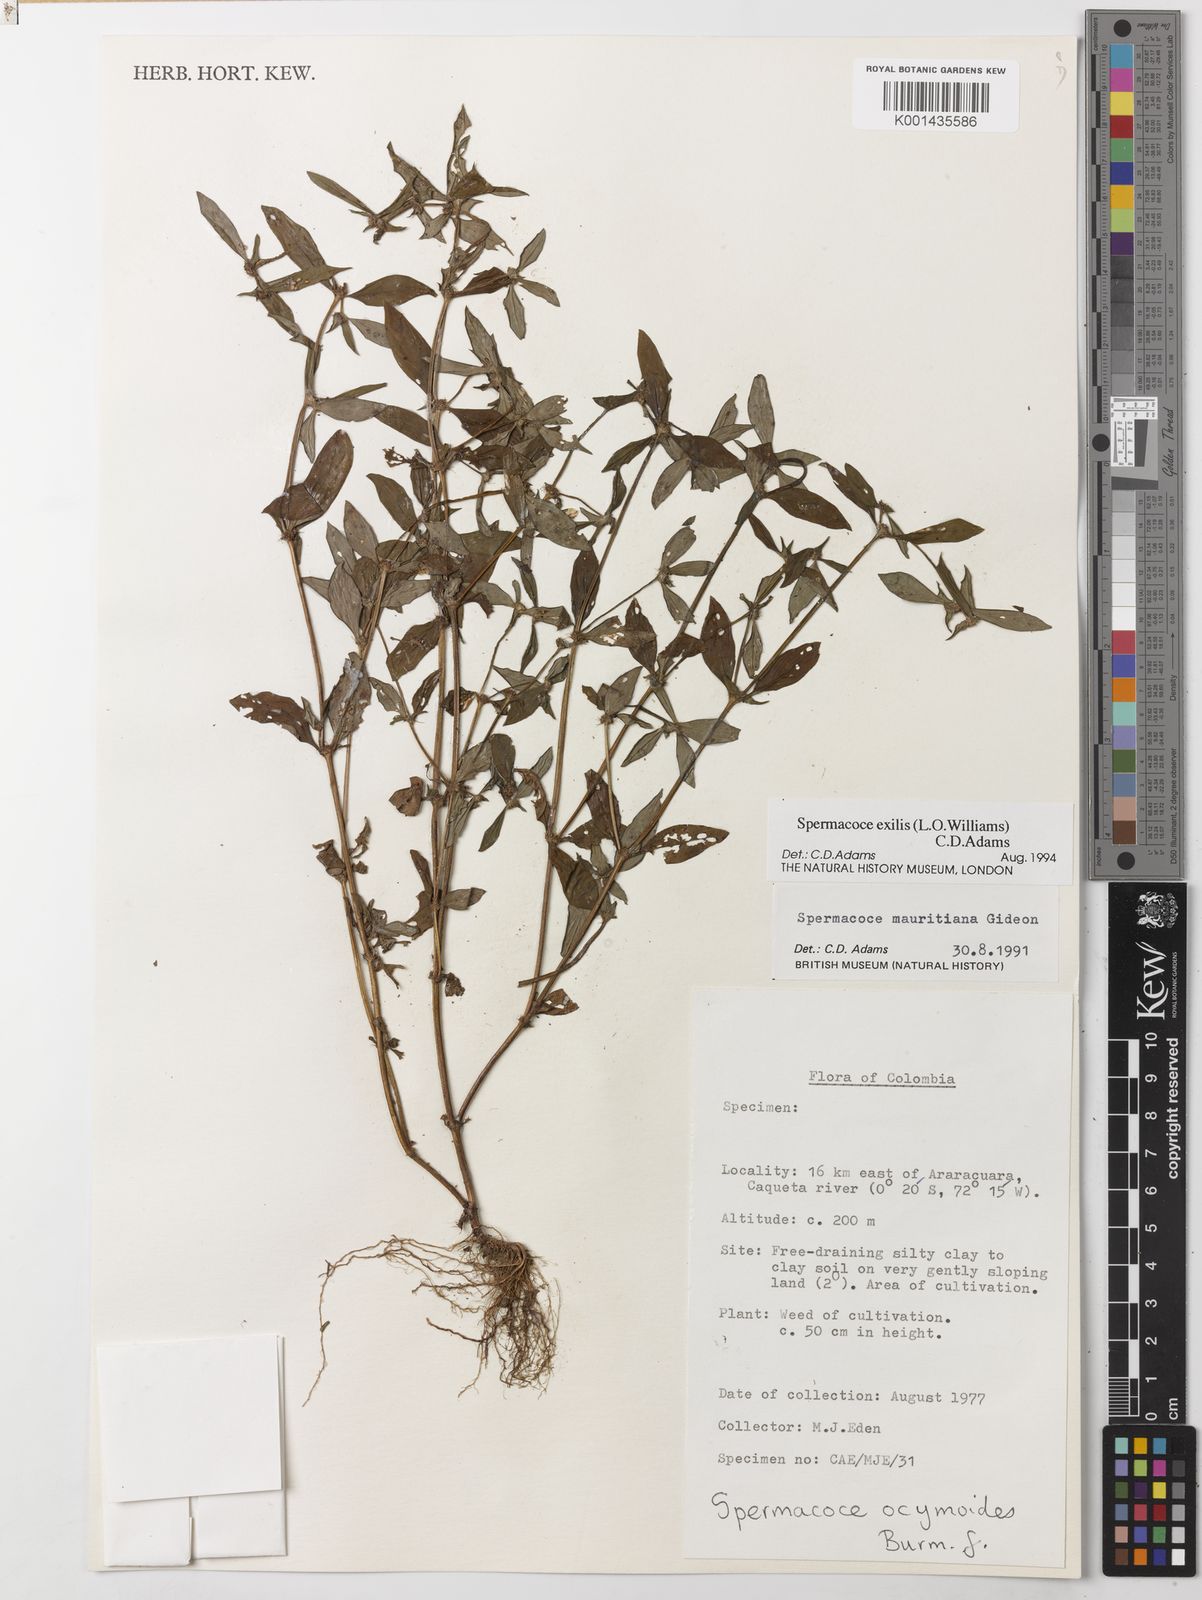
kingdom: Plantae
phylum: Tracheophyta
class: Magnoliopsida
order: Gentianales
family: Rubiaceae
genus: Spermacoce
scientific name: Spermacoce exilis
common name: Pacific false buttonweed
